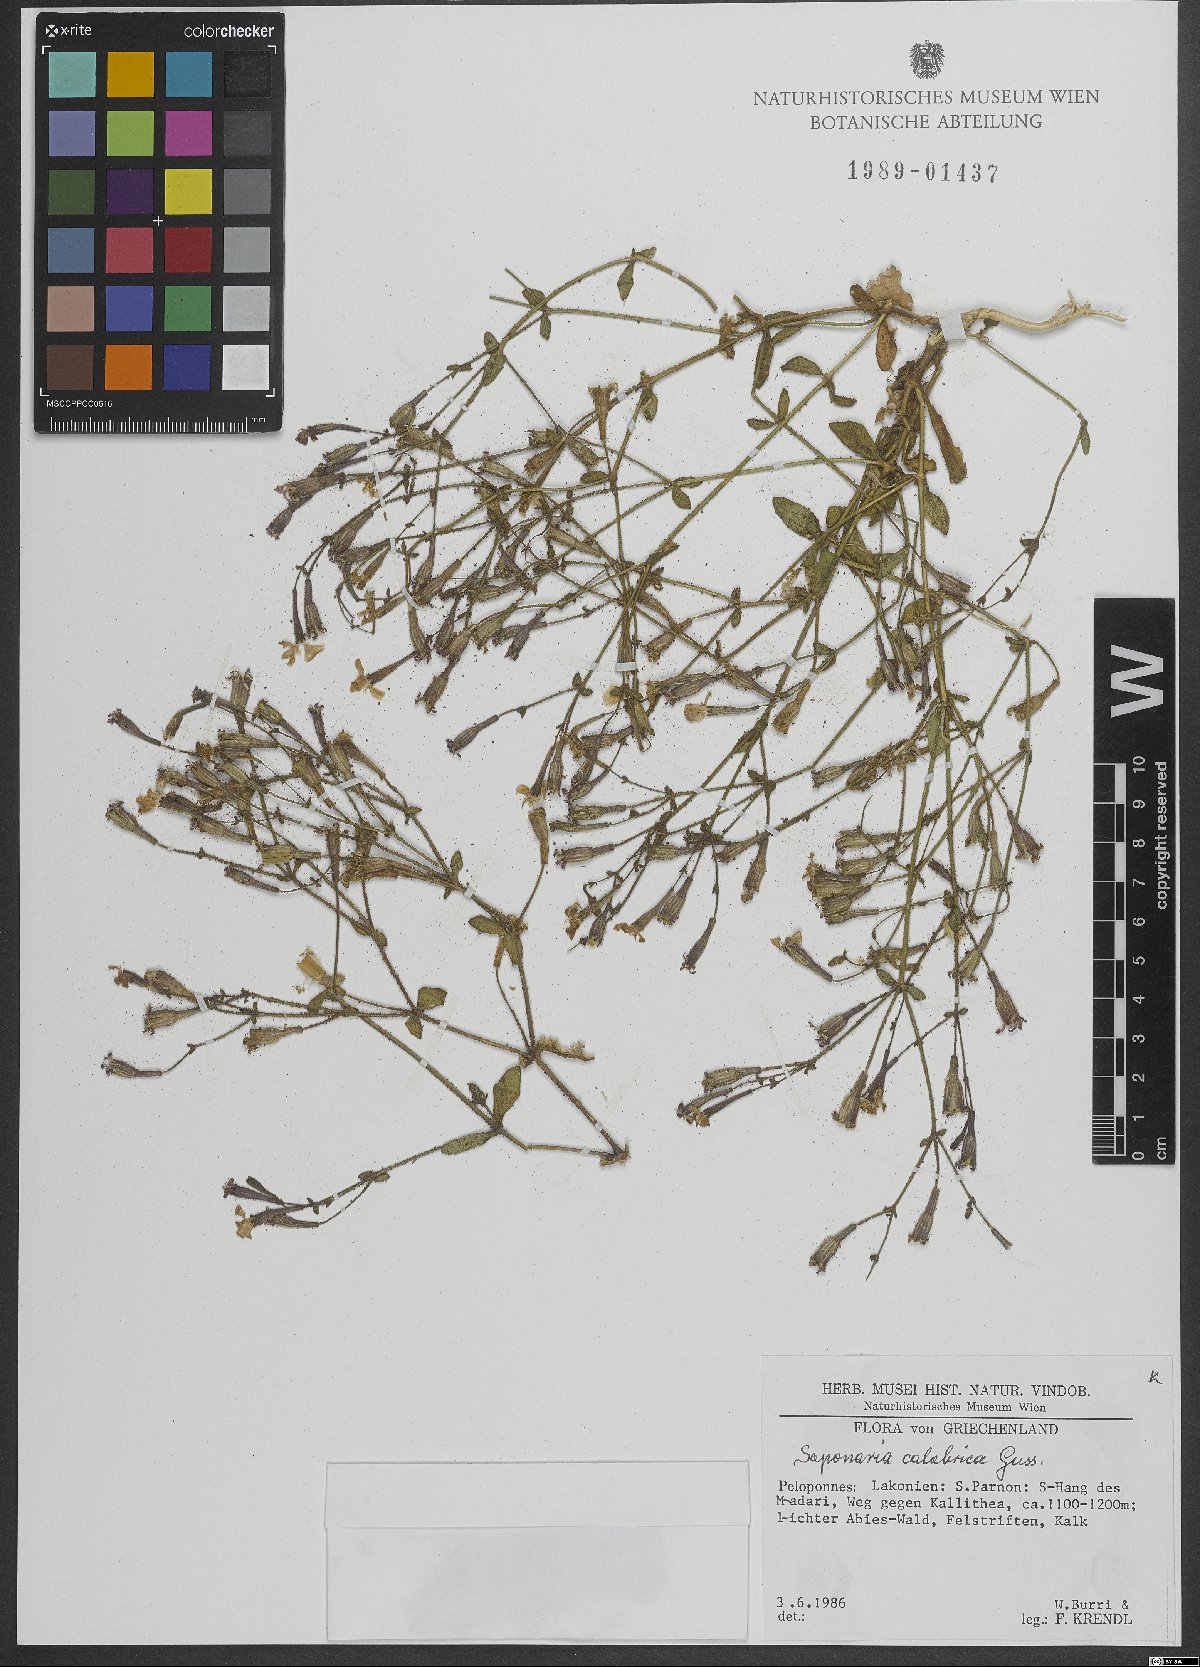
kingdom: Plantae
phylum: Tracheophyta
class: Magnoliopsida
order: Caryophyllales
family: Caryophyllaceae
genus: Saponaria
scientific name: Saponaria calabrica
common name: Adriatic soapwort
